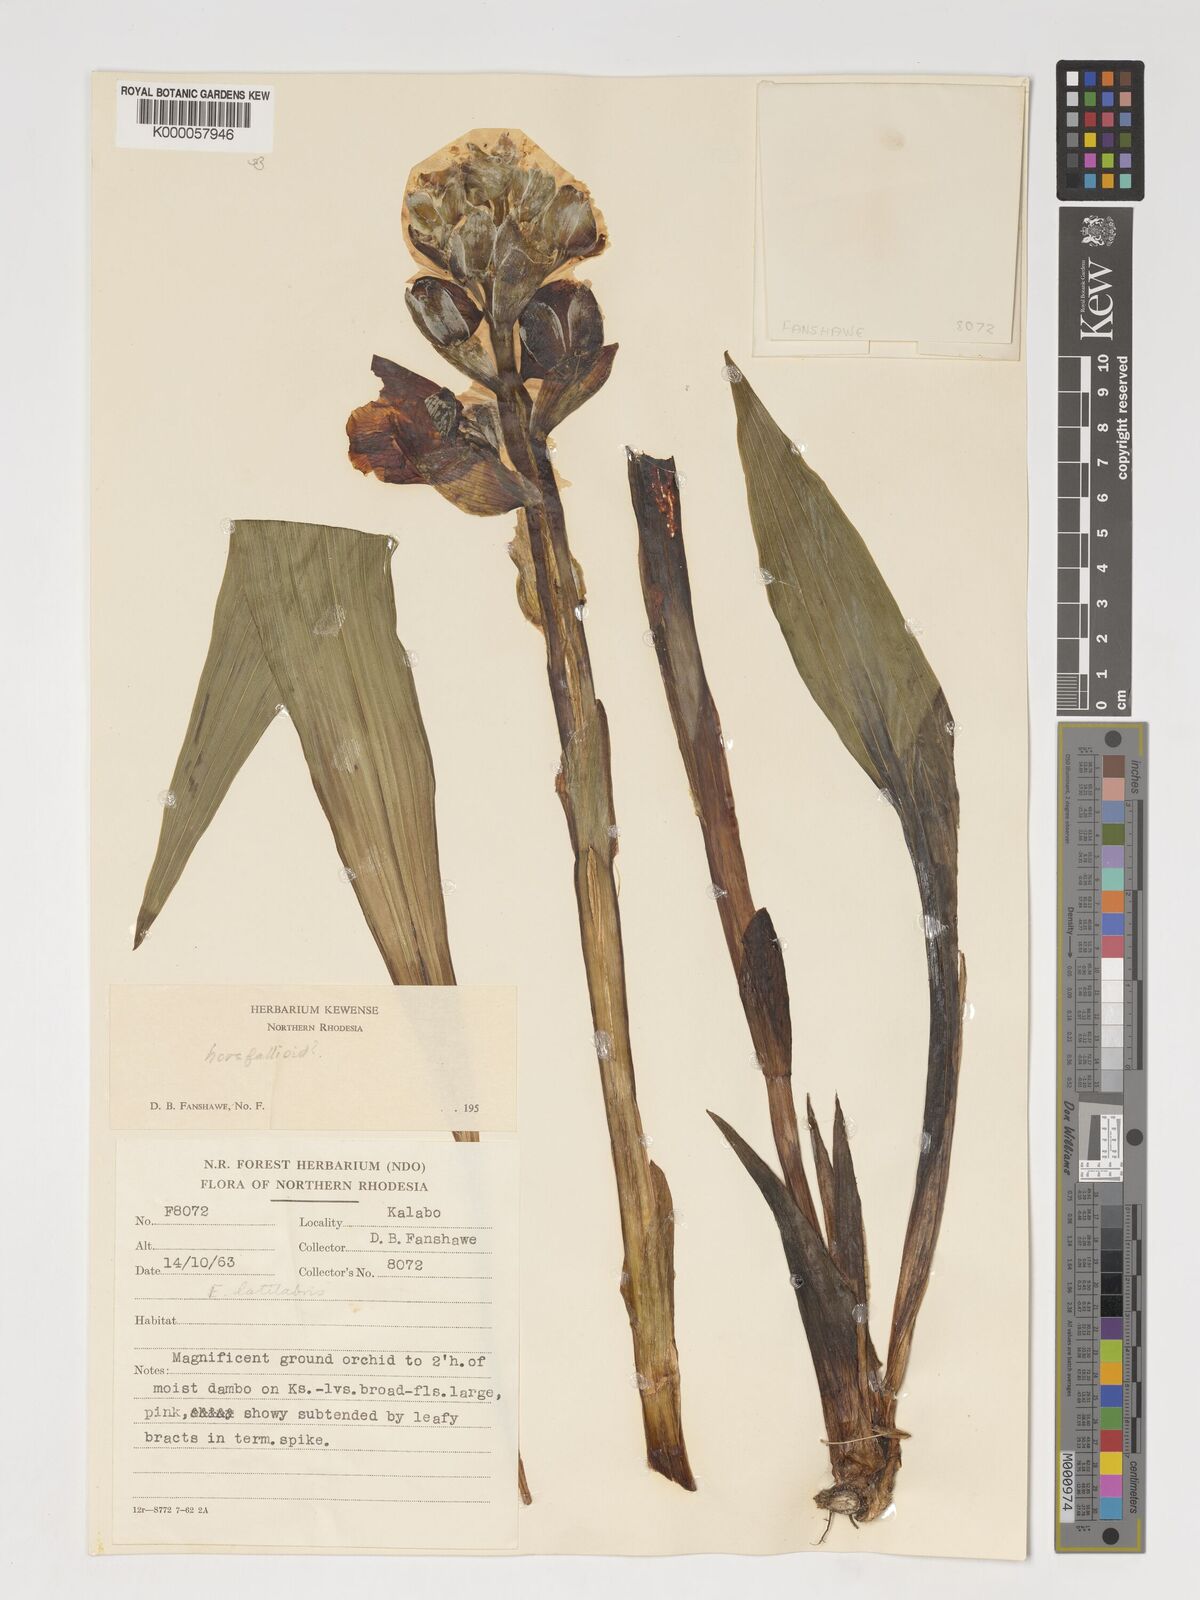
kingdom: Plantae
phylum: Tracheophyta
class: Liliopsida
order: Asparagales
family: Orchidaceae
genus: Eulophia
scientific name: Eulophia latilabris
